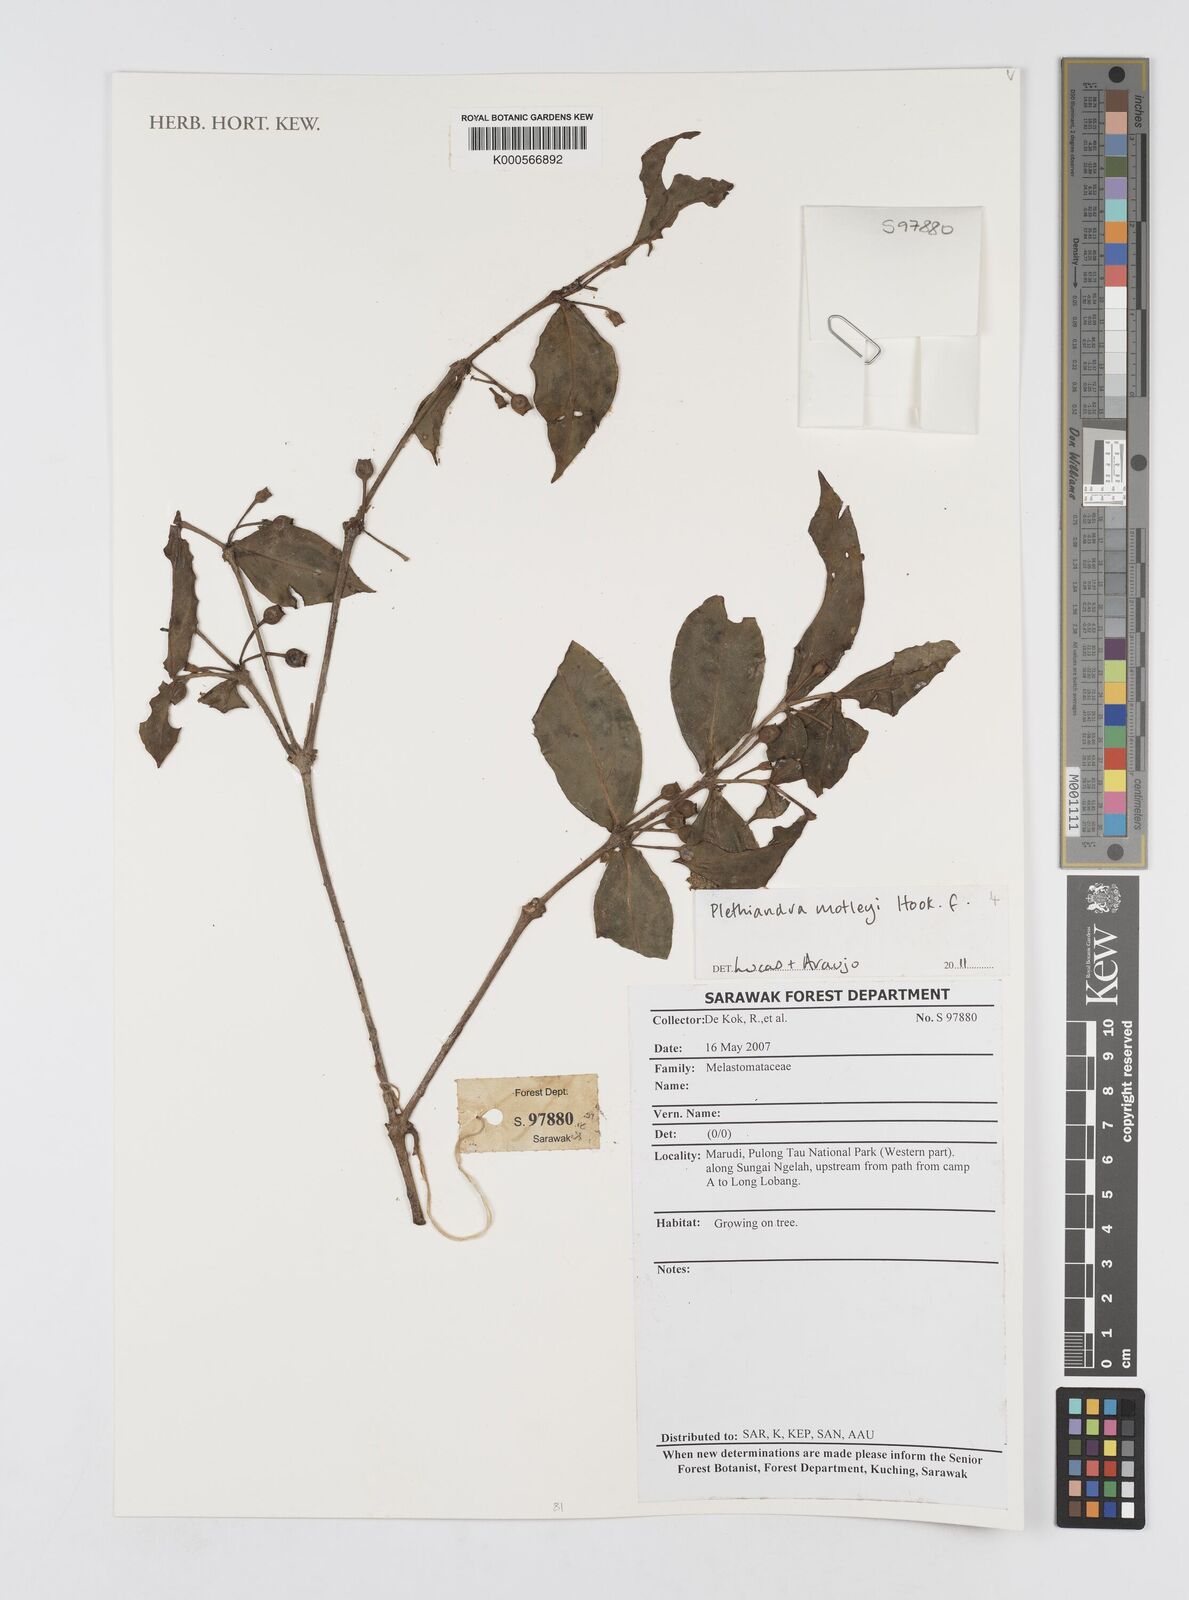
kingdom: Plantae
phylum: Tracheophyta
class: Magnoliopsida
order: Myrtales
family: Melastomataceae
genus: Plethiandra
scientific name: Plethiandra motleyi
